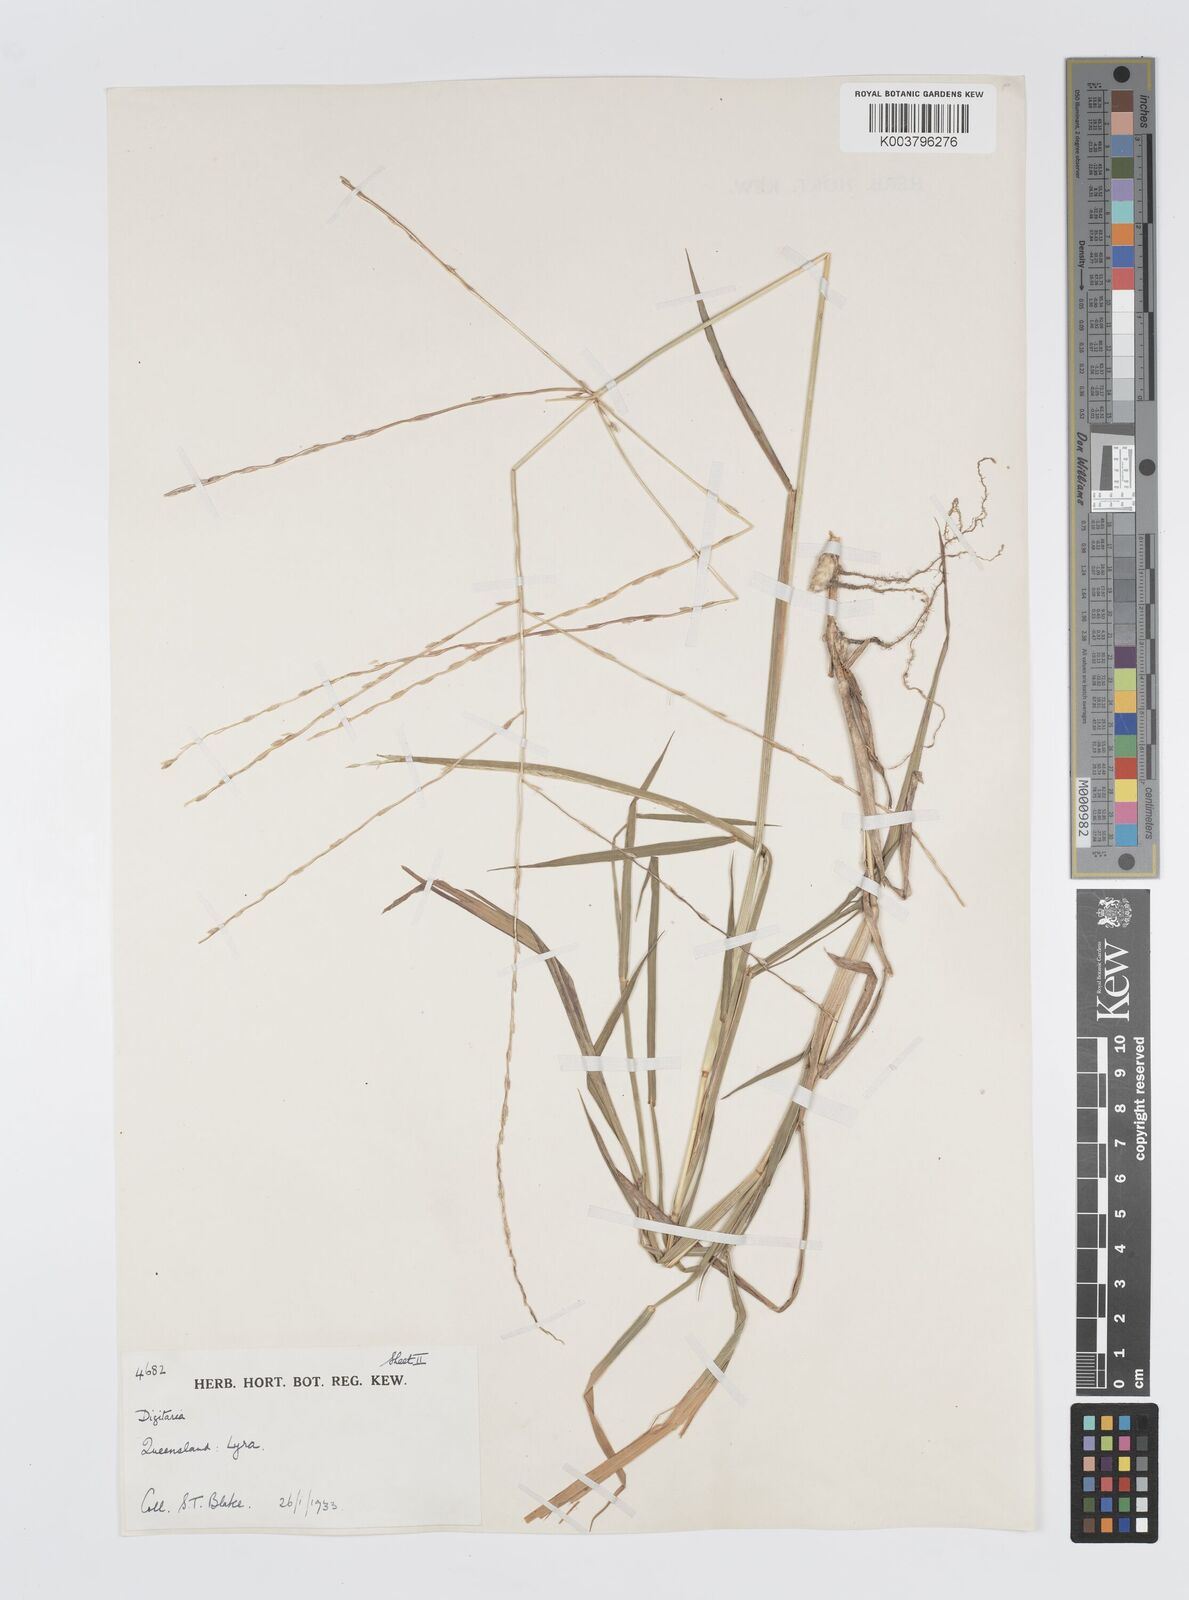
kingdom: Plantae
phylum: Tracheophyta
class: Liliopsida
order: Poales
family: Poaceae
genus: Digitaria
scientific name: Digitaria divaricatissima
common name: Crabgrass
